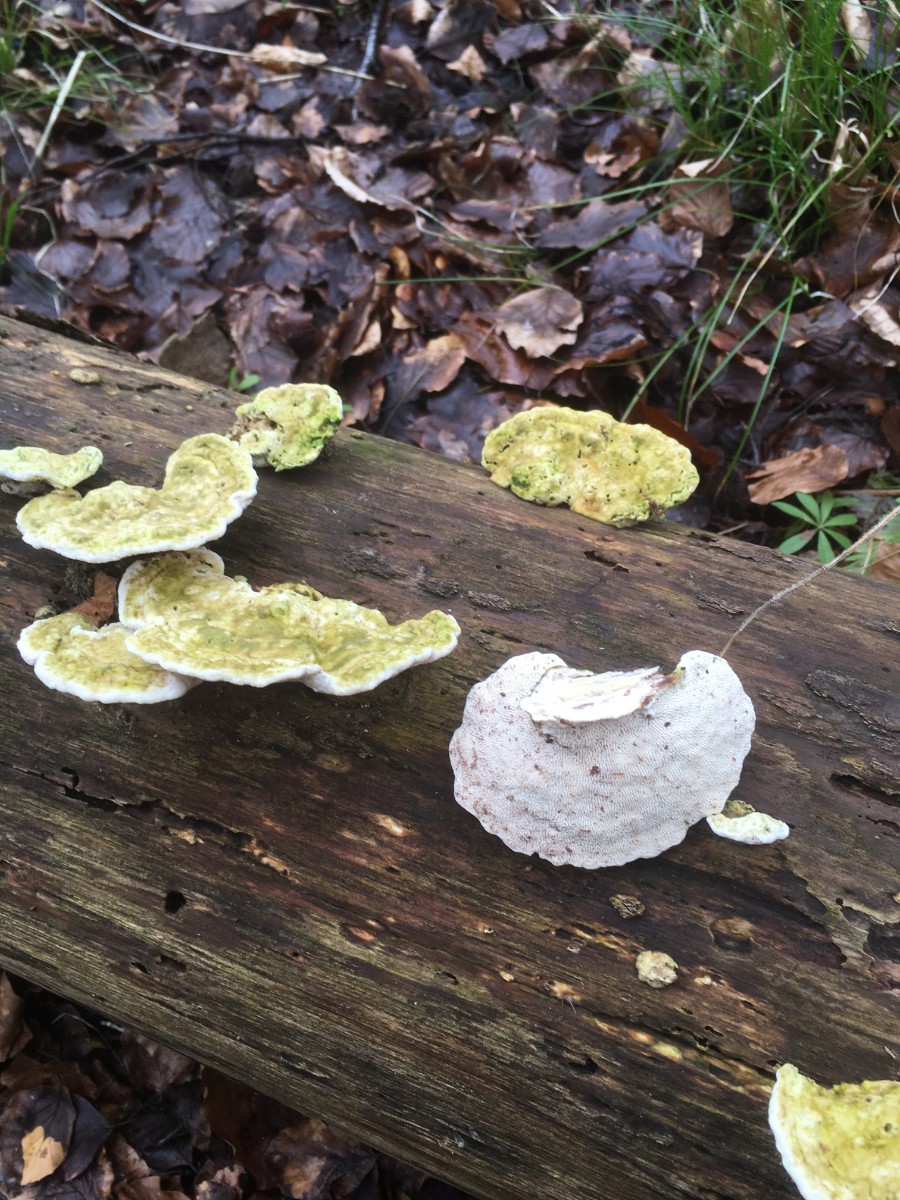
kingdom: Fungi
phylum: Basidiomycota
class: Agaricomycetes
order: Polyporales
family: Polyporaceae
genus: Trametes
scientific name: Trametes gibbosa
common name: puklet læderporesvamp
